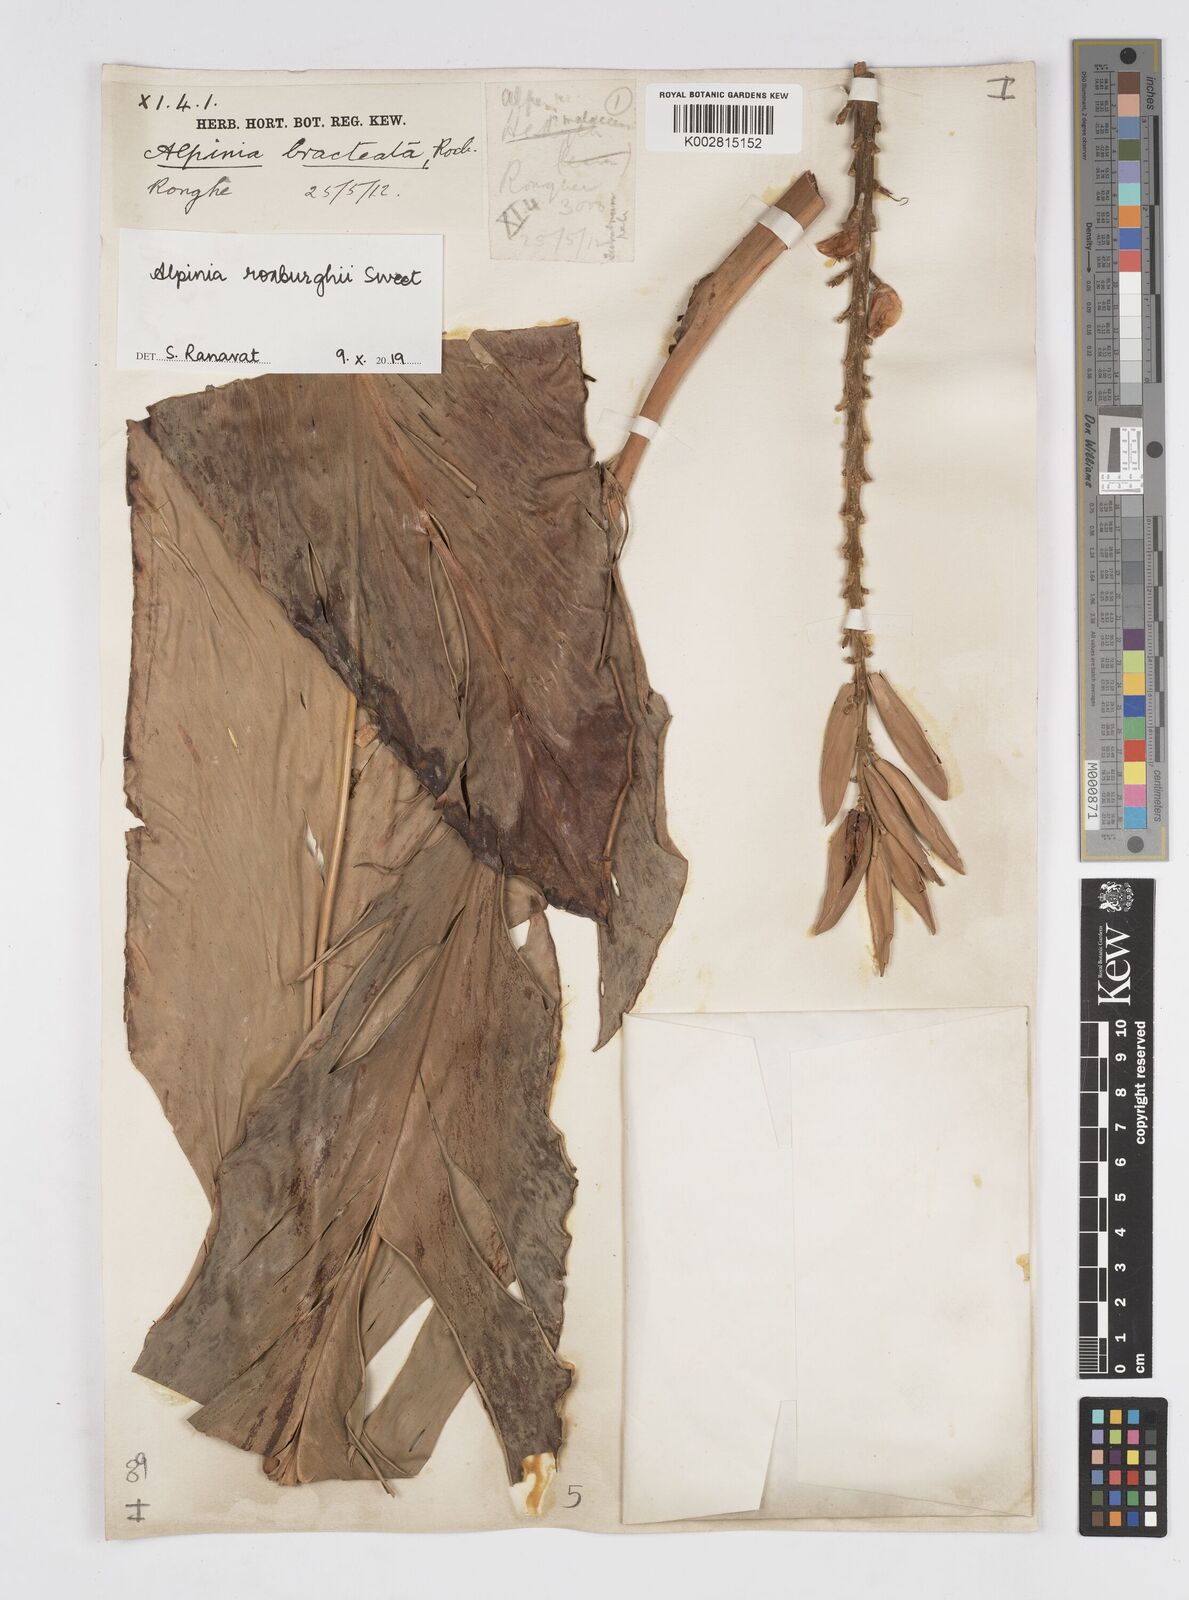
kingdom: Plantae
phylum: Tracheophyta
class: Liliopsida
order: Zingiberales
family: Zingiberaceae
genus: Alpinia
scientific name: Alpinia roxburghii
